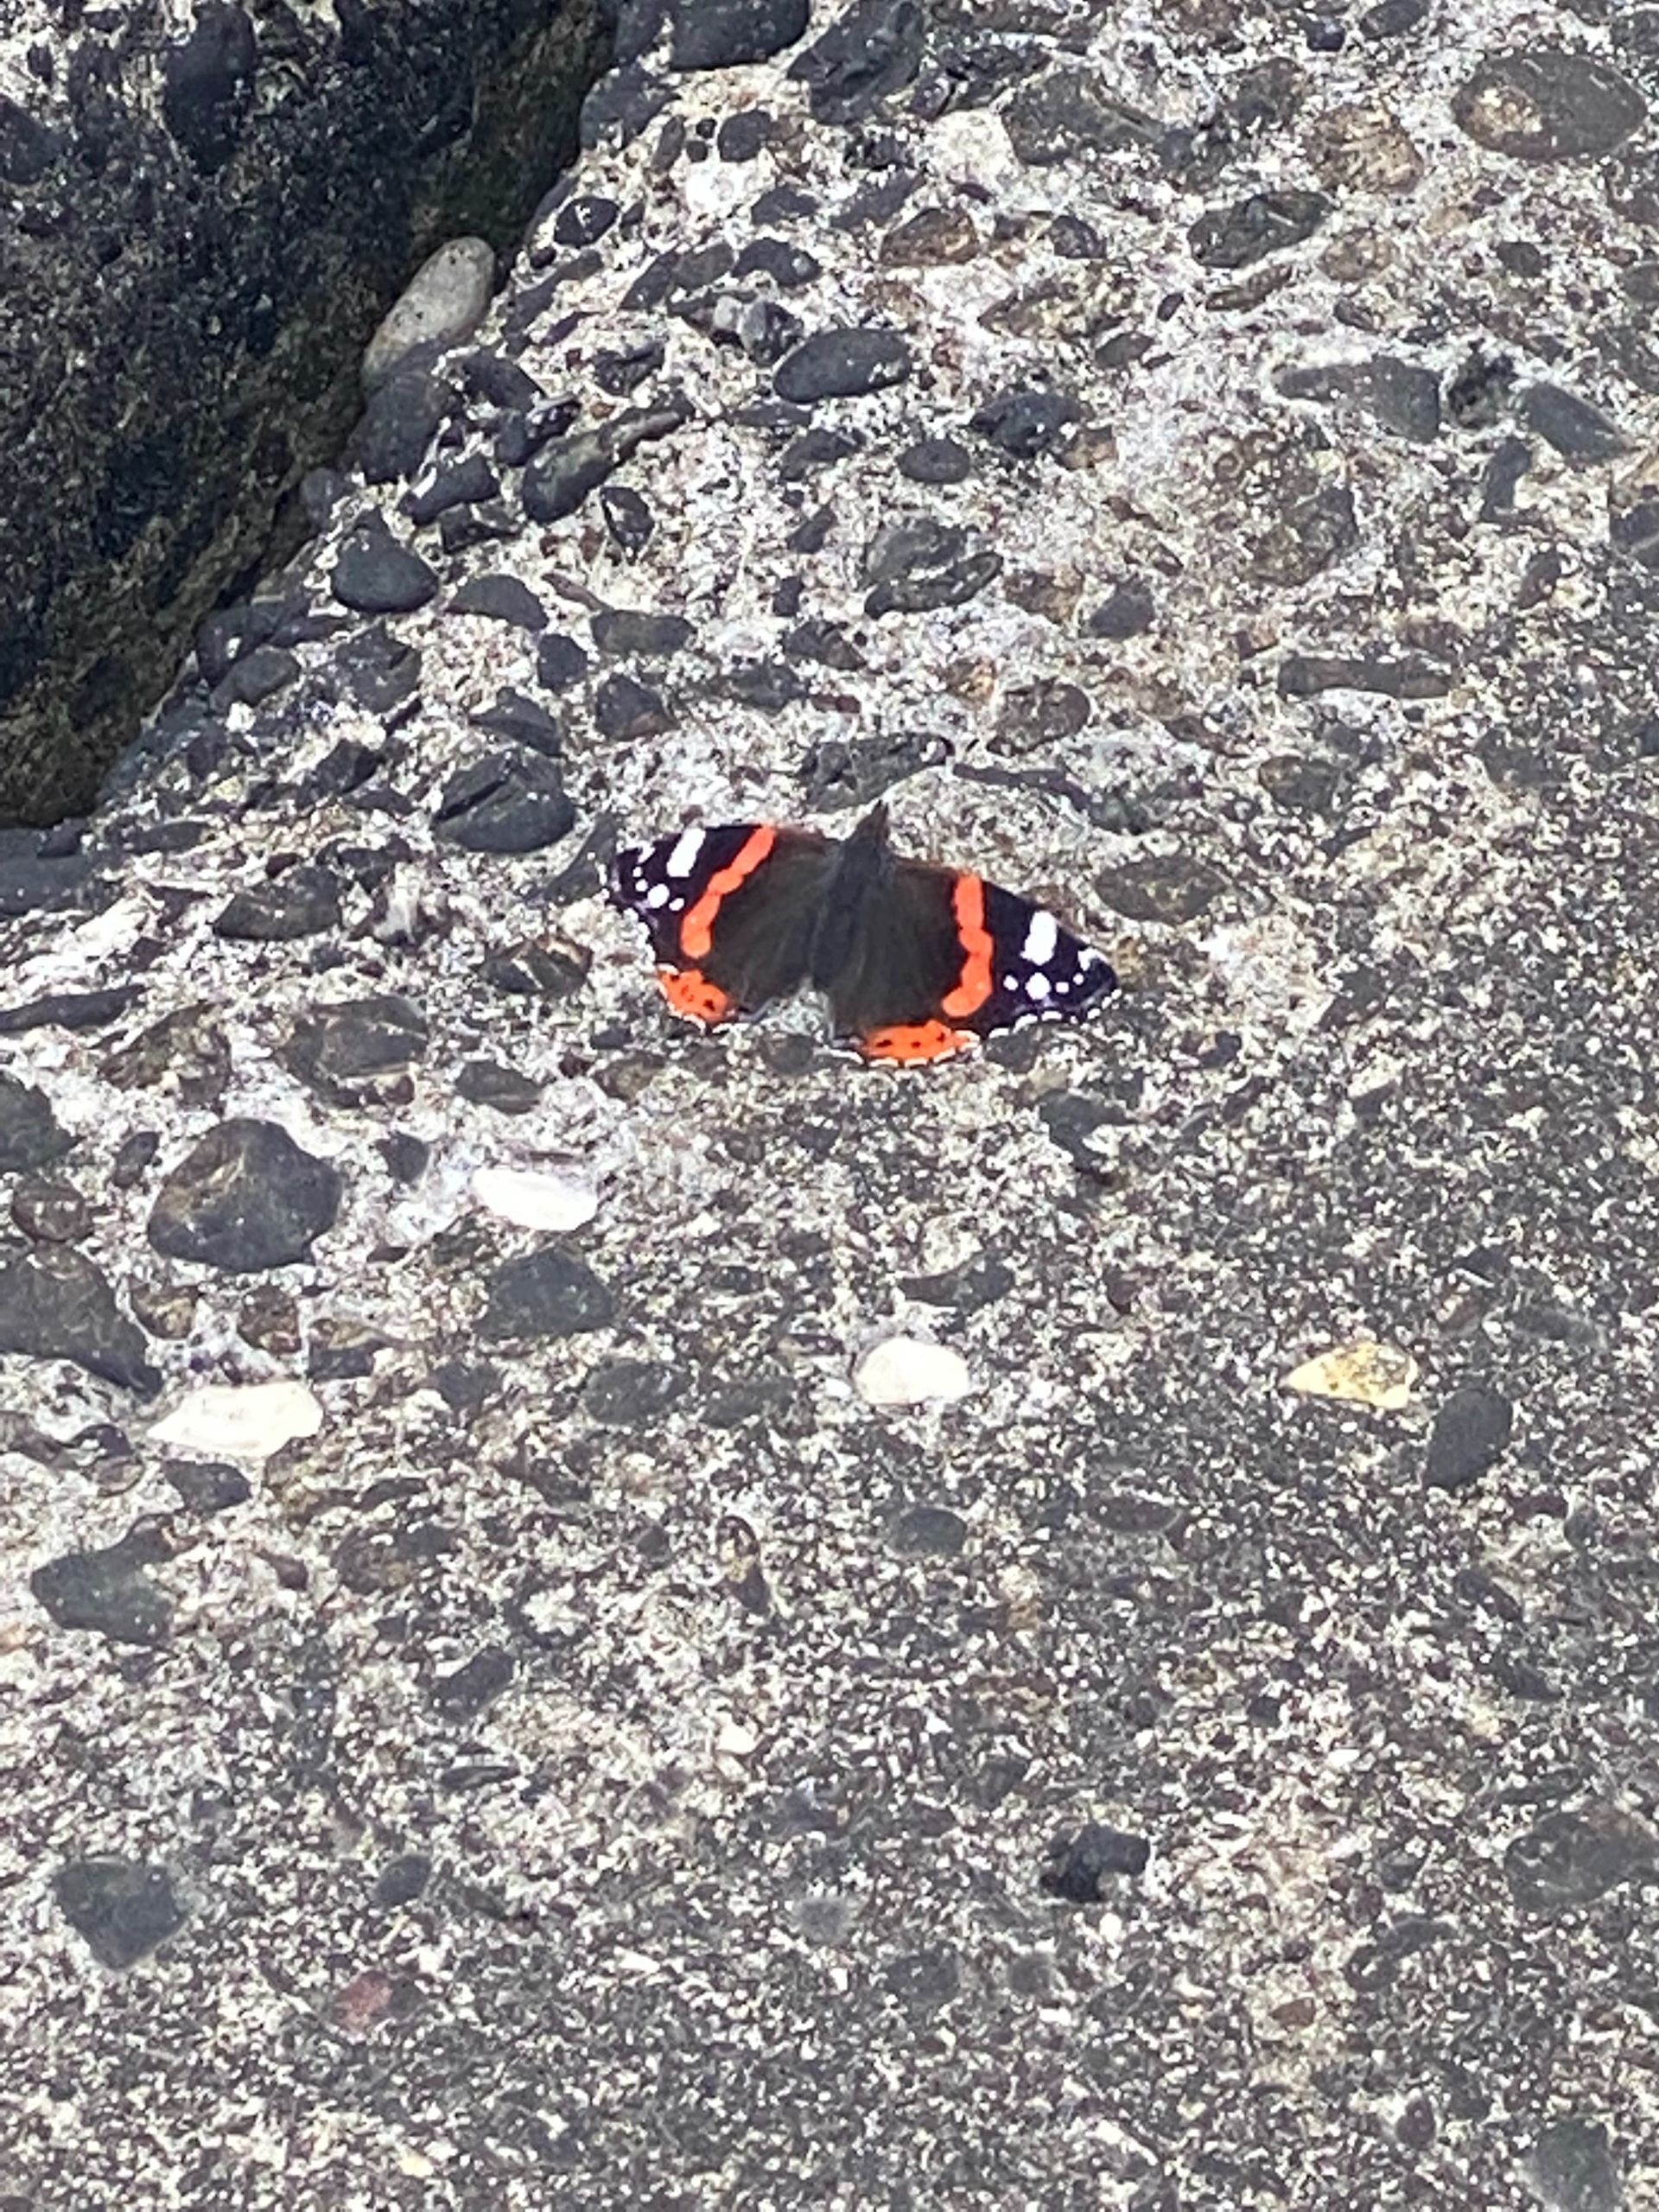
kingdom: Animalia
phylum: Arthropoda
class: Insecta
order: Lepidoptera
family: Nymphalidae
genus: Vanessa
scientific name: Vanessa atalanta
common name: Admiral
